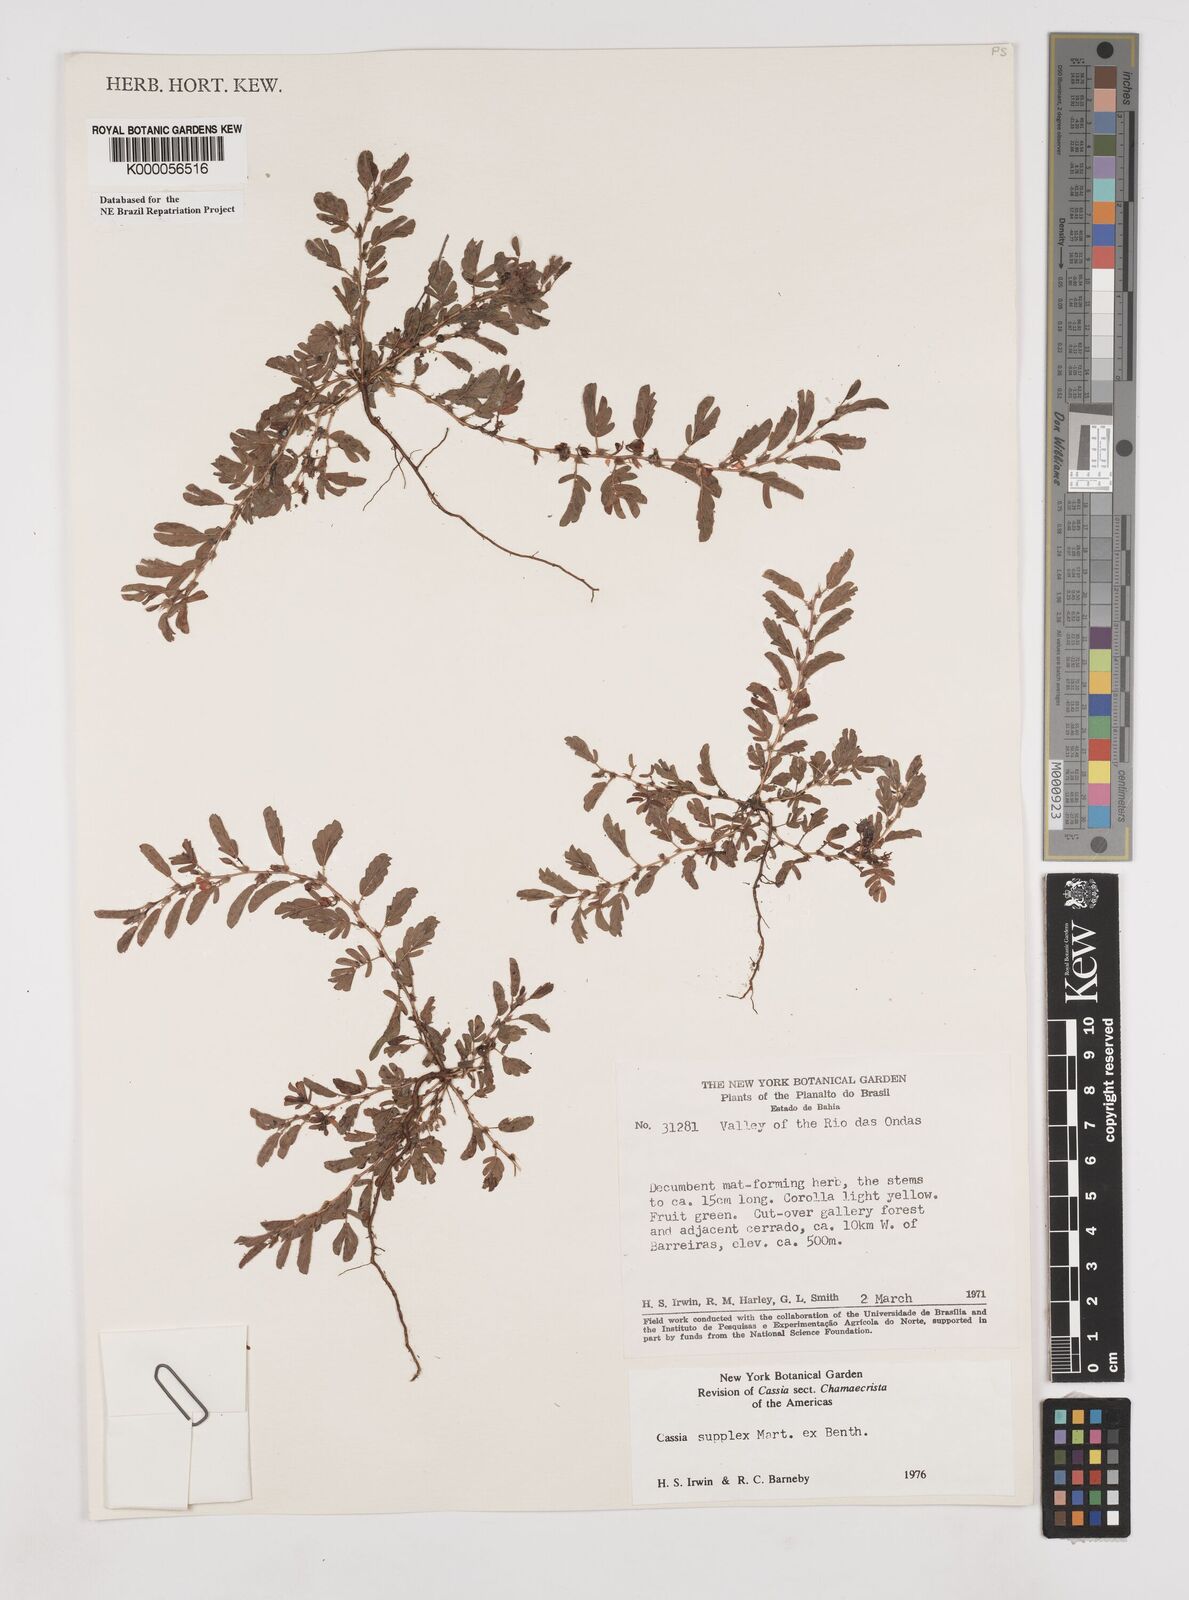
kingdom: Plantae
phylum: Tracheophyta
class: Magnoliopsida
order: Fabales
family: Fabaceae
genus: Chamaecrista
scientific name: Chamaecrista supplex
